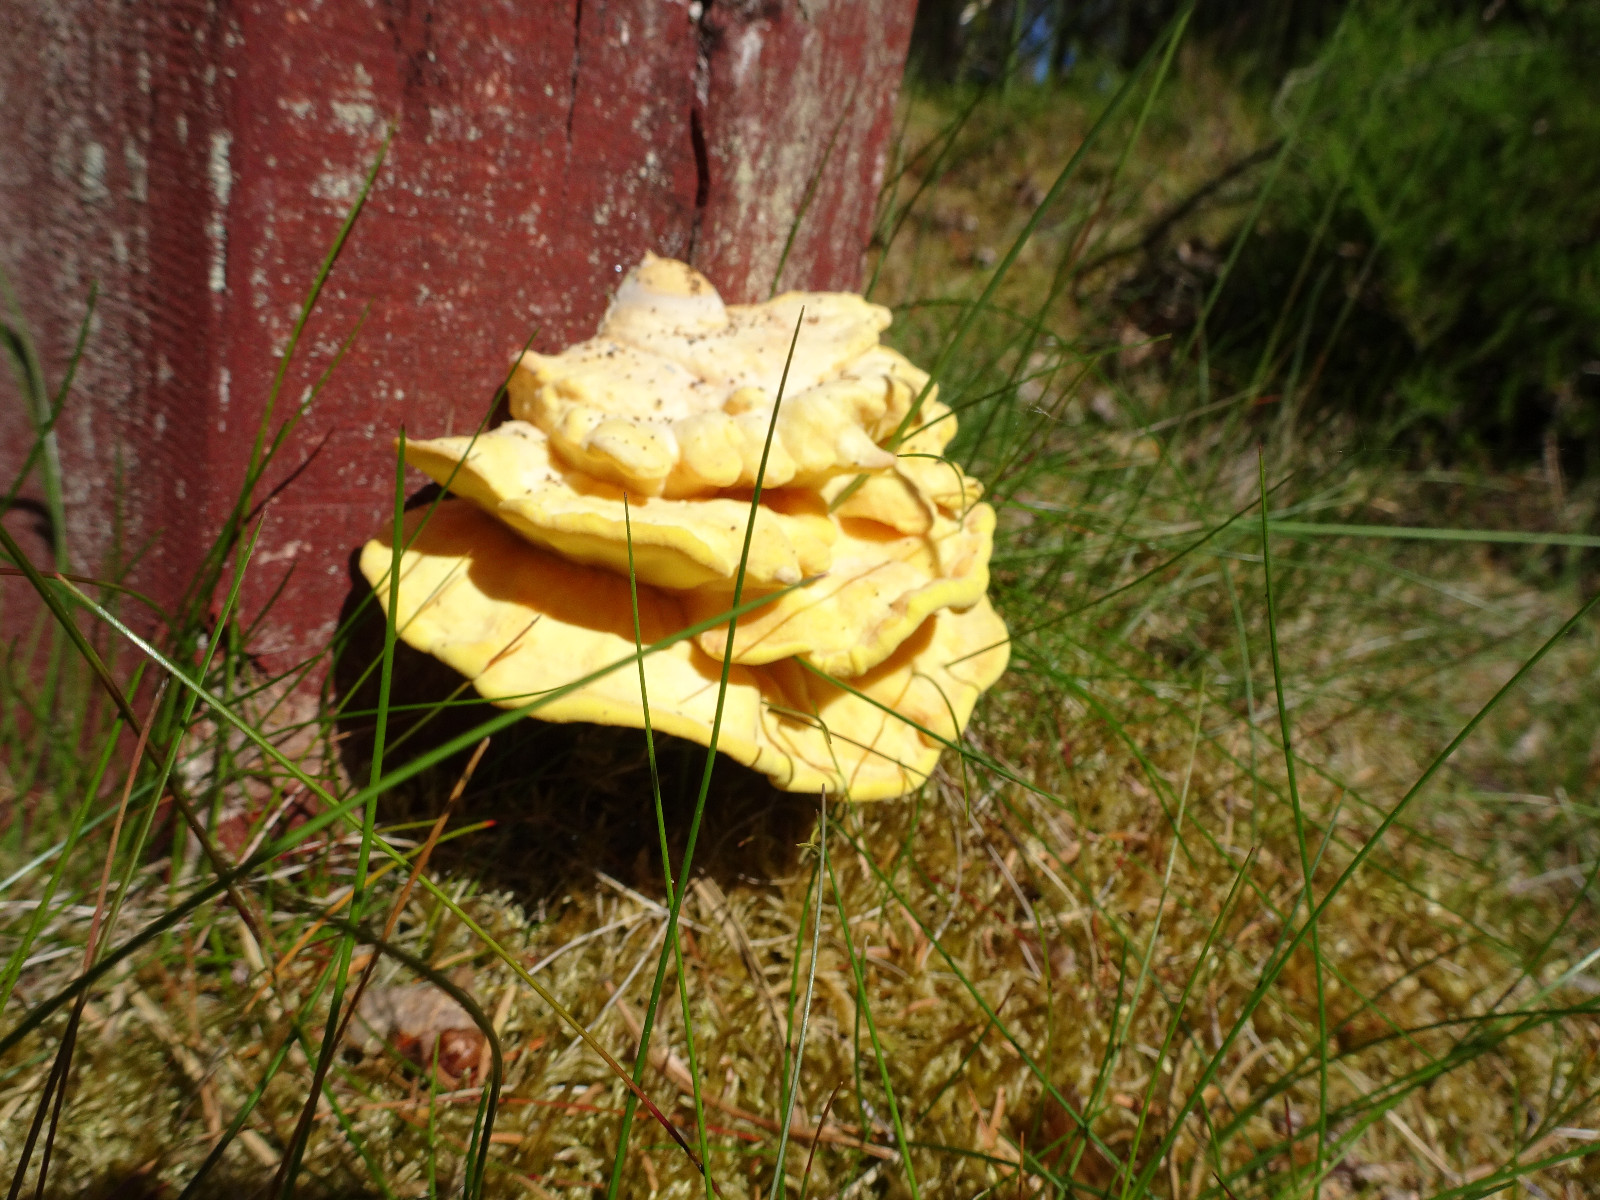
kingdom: Fungi
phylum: Basidiomycota
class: Agaricomycetes
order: Polyporales
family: Laetiporaceae
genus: Laetiporus
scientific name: Laetiporus sulphureus
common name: svovlporesvamp
